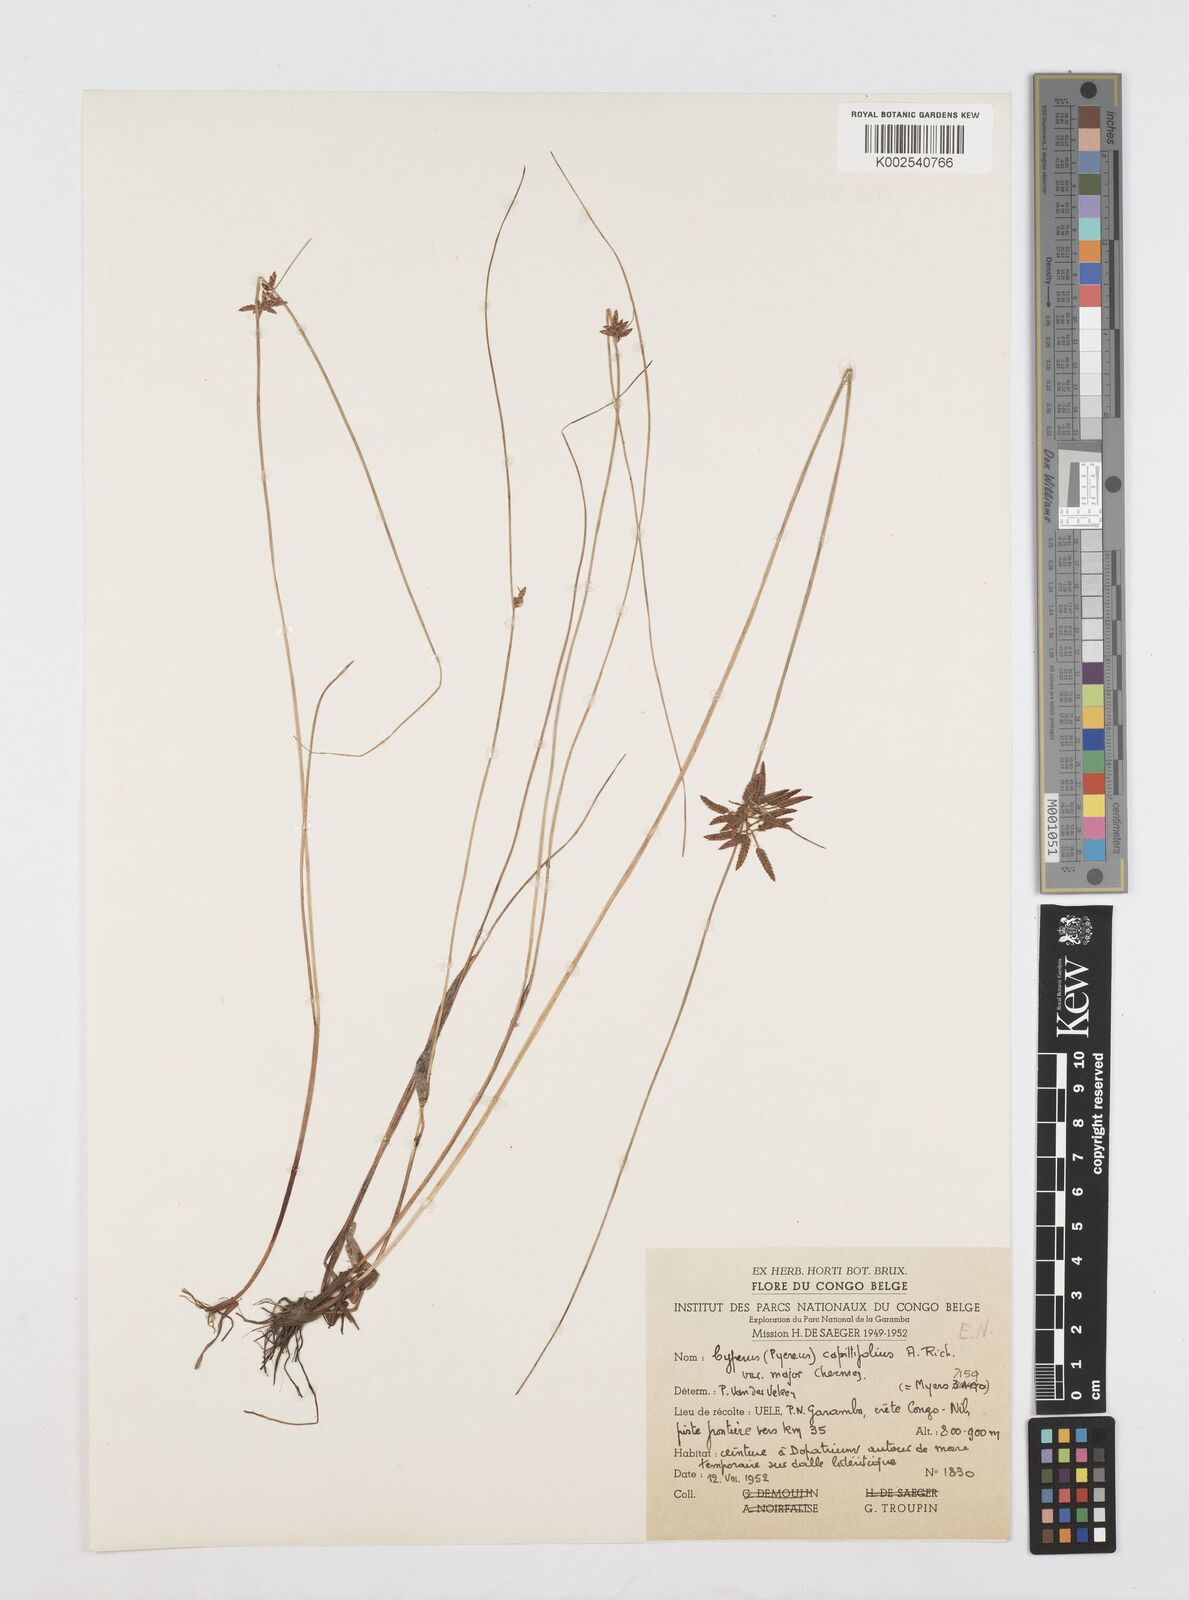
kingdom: Plantae
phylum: Tracheophyta
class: Liliopsida
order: Poales
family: Cyperaceae
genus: Cyperus
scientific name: Cyperus capillifolius
